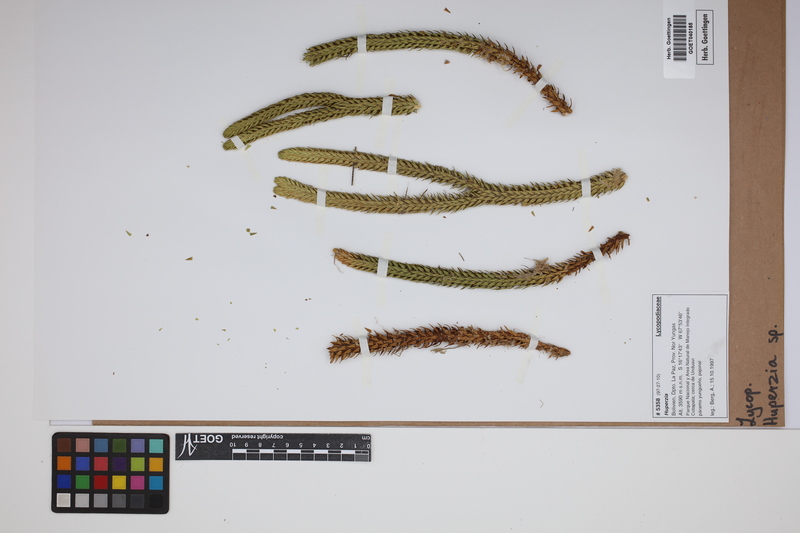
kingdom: Plantae
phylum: Tracheophyta
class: Lycopodiopsida
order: Lycopodiales
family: Lycopodiaceae
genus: Phlegmariurus
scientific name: Phlegmariurus
